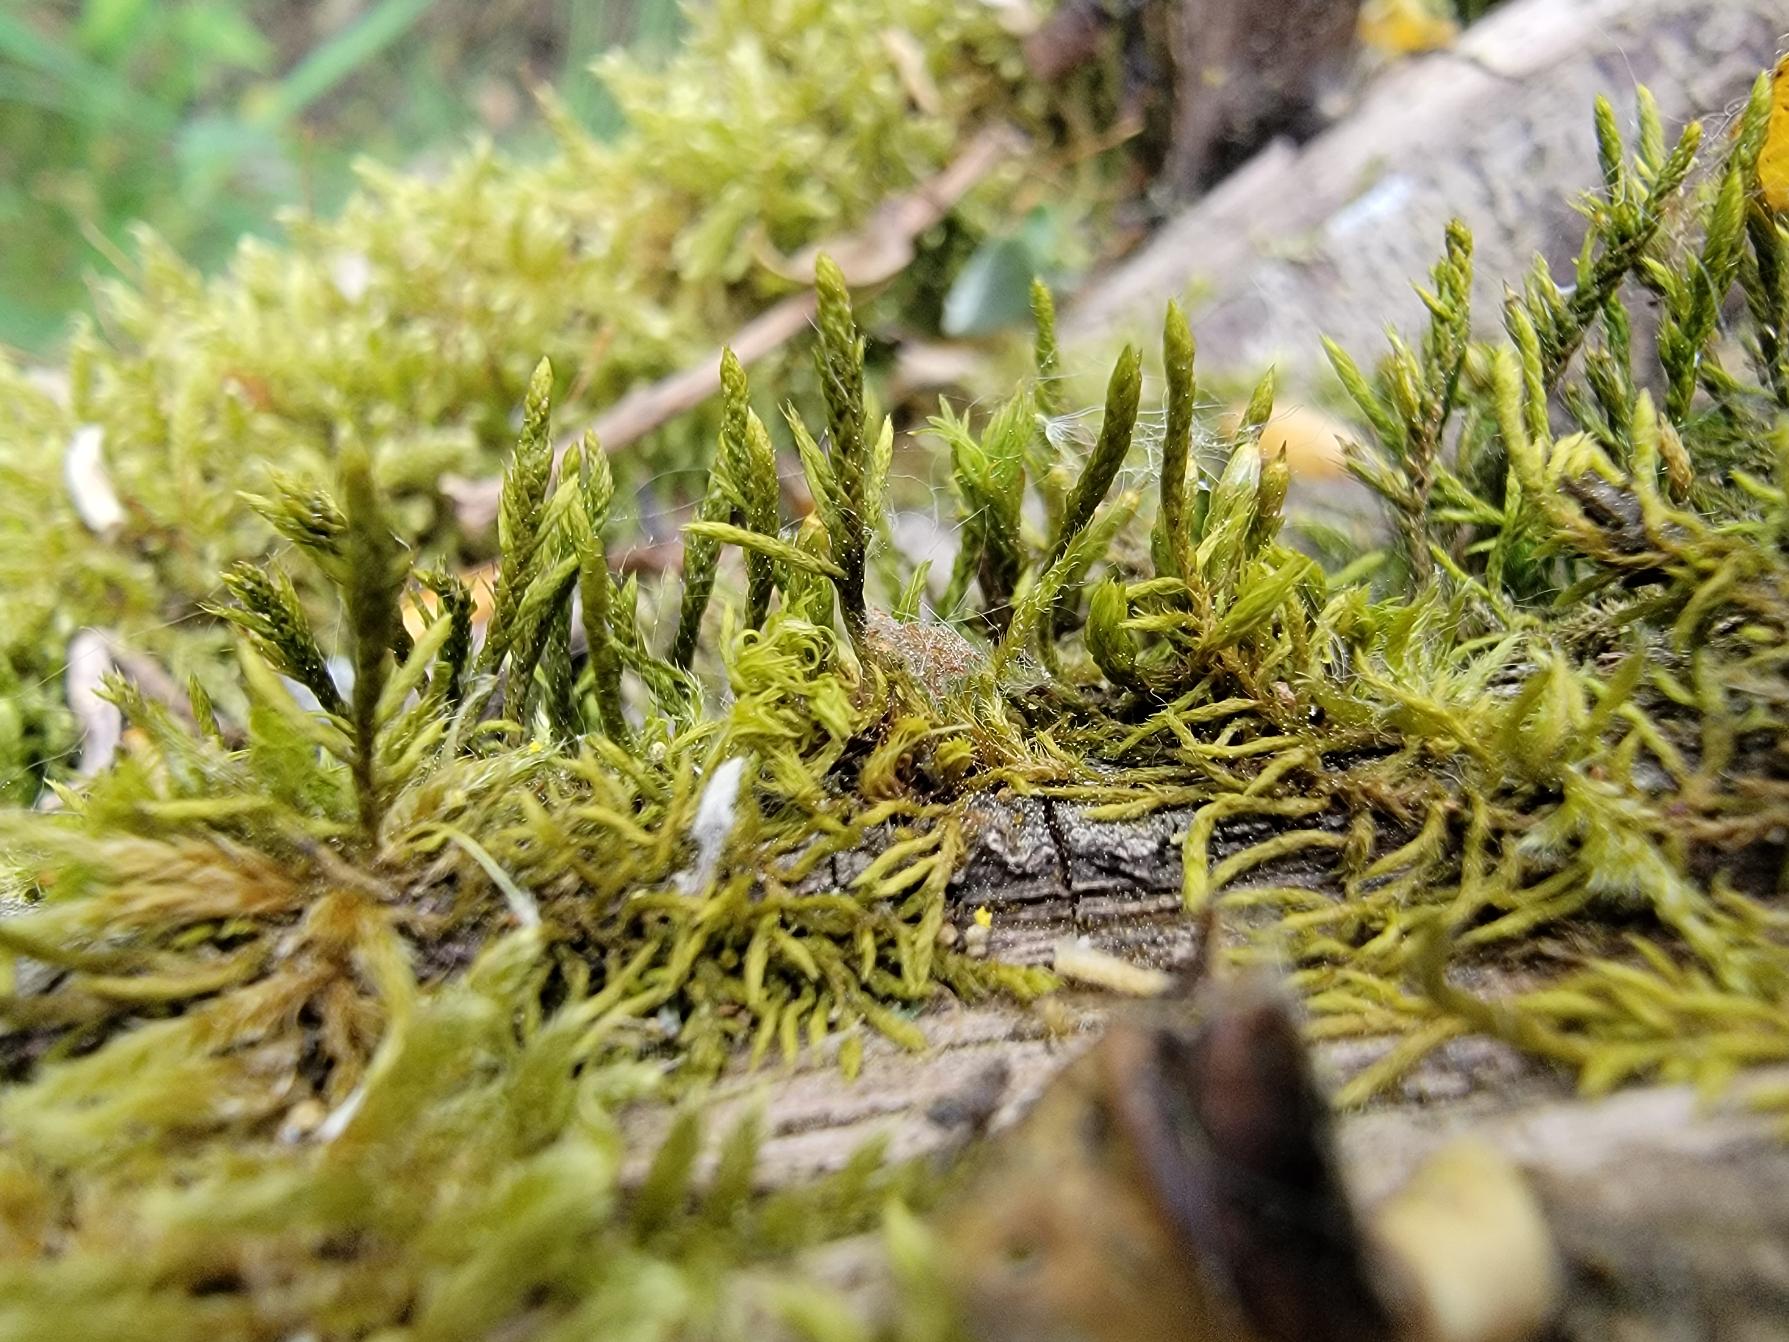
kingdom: Plantae
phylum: Bryophyta
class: Bryopsida
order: Hypnales
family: Cryphaeaceae
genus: Cryphaea
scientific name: Cryphaea heteromalla
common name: Bark-dækmos
